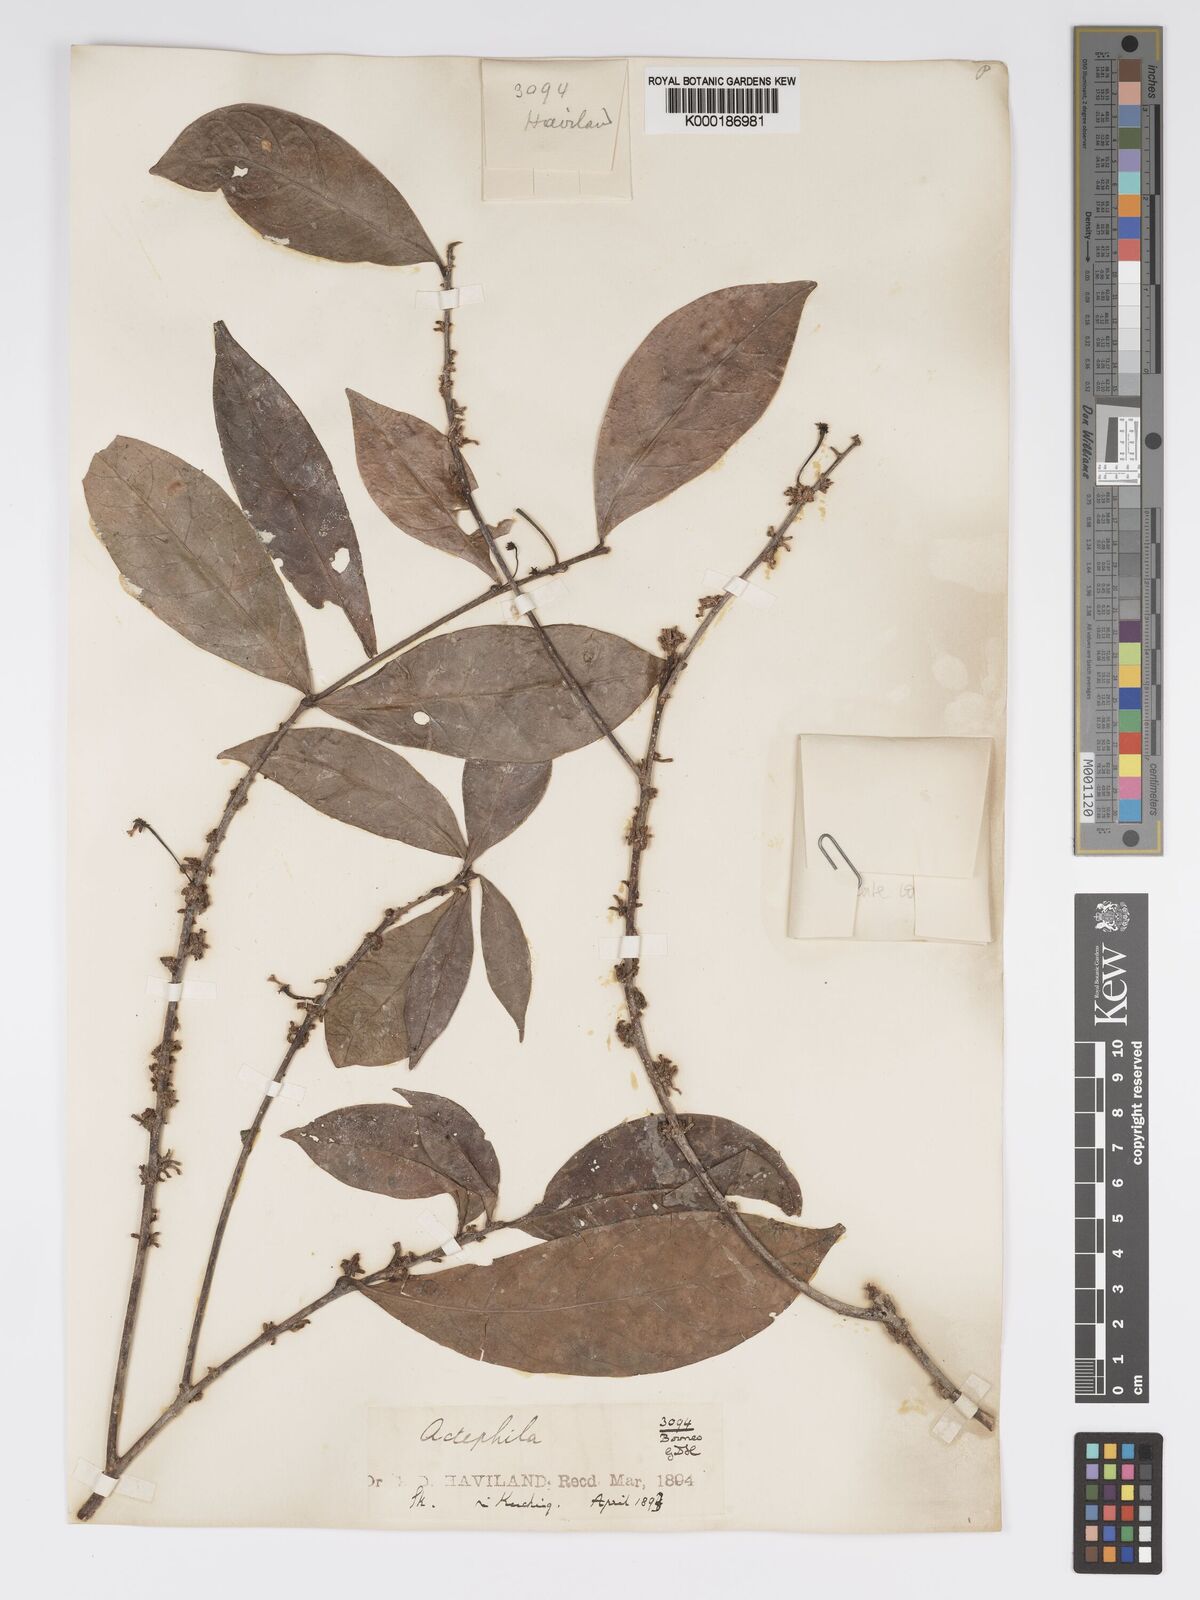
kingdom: Plantae
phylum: Tracheophyta
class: Magnoliopsida
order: Malpighiales
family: Phyllanthaceae
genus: Actephila
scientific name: Actephila
